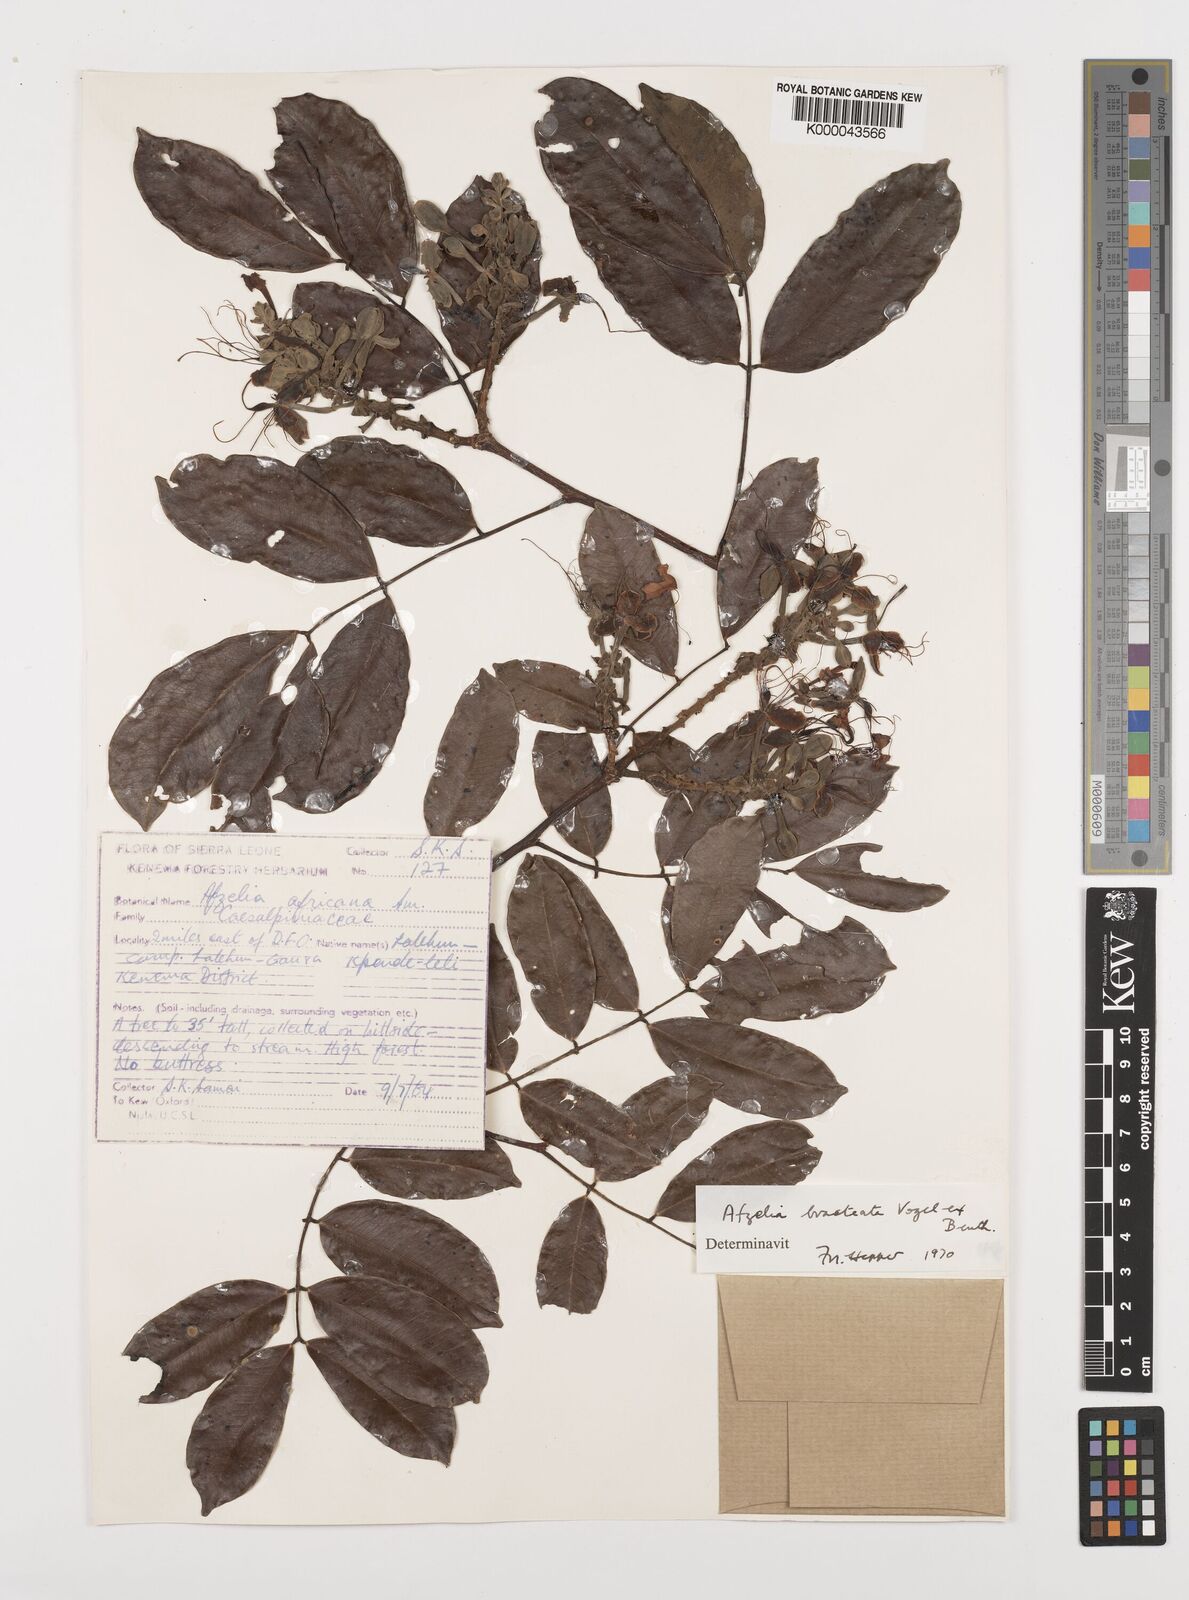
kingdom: Plantae
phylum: Tracheophyta
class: Magnoliopsida
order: Fabales
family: Fabaceae
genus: Afzelia
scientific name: Afzelia
